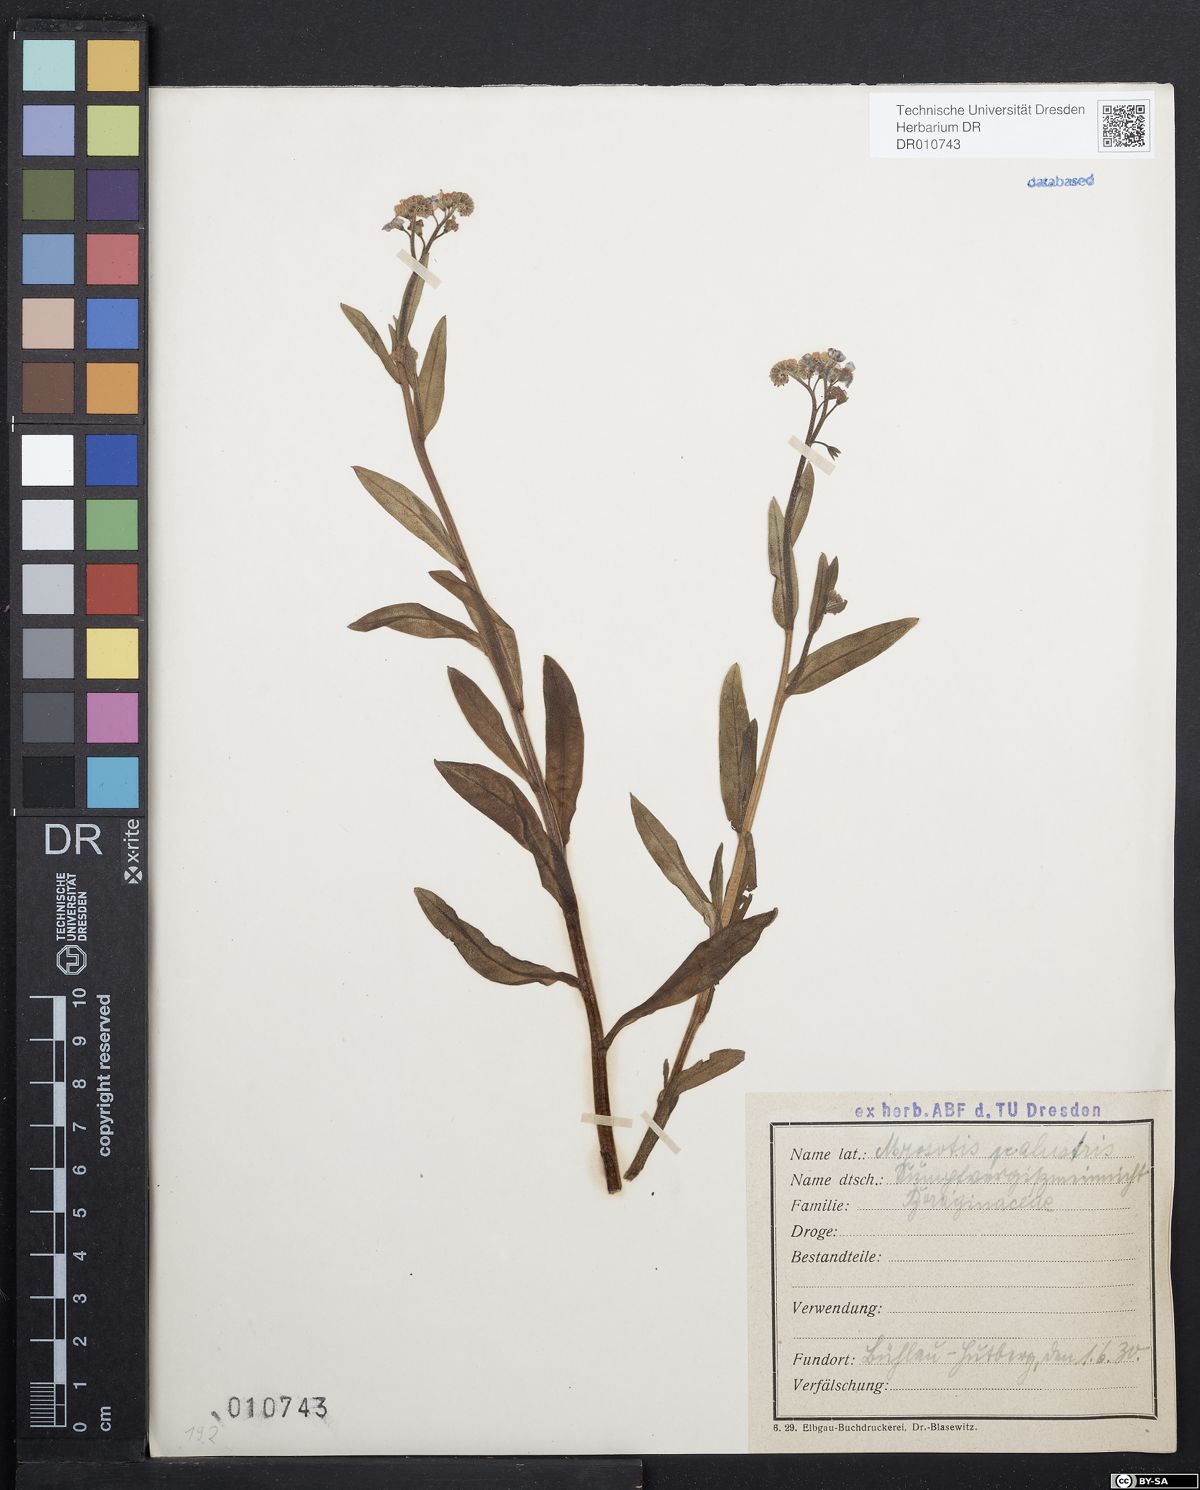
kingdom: Plantae
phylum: Tracheophyta
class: Magnoliopsida
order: Boraginales
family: Boraginaceae
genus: Myosotis
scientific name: Myosotis scorpioides
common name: Water forget-me-not
